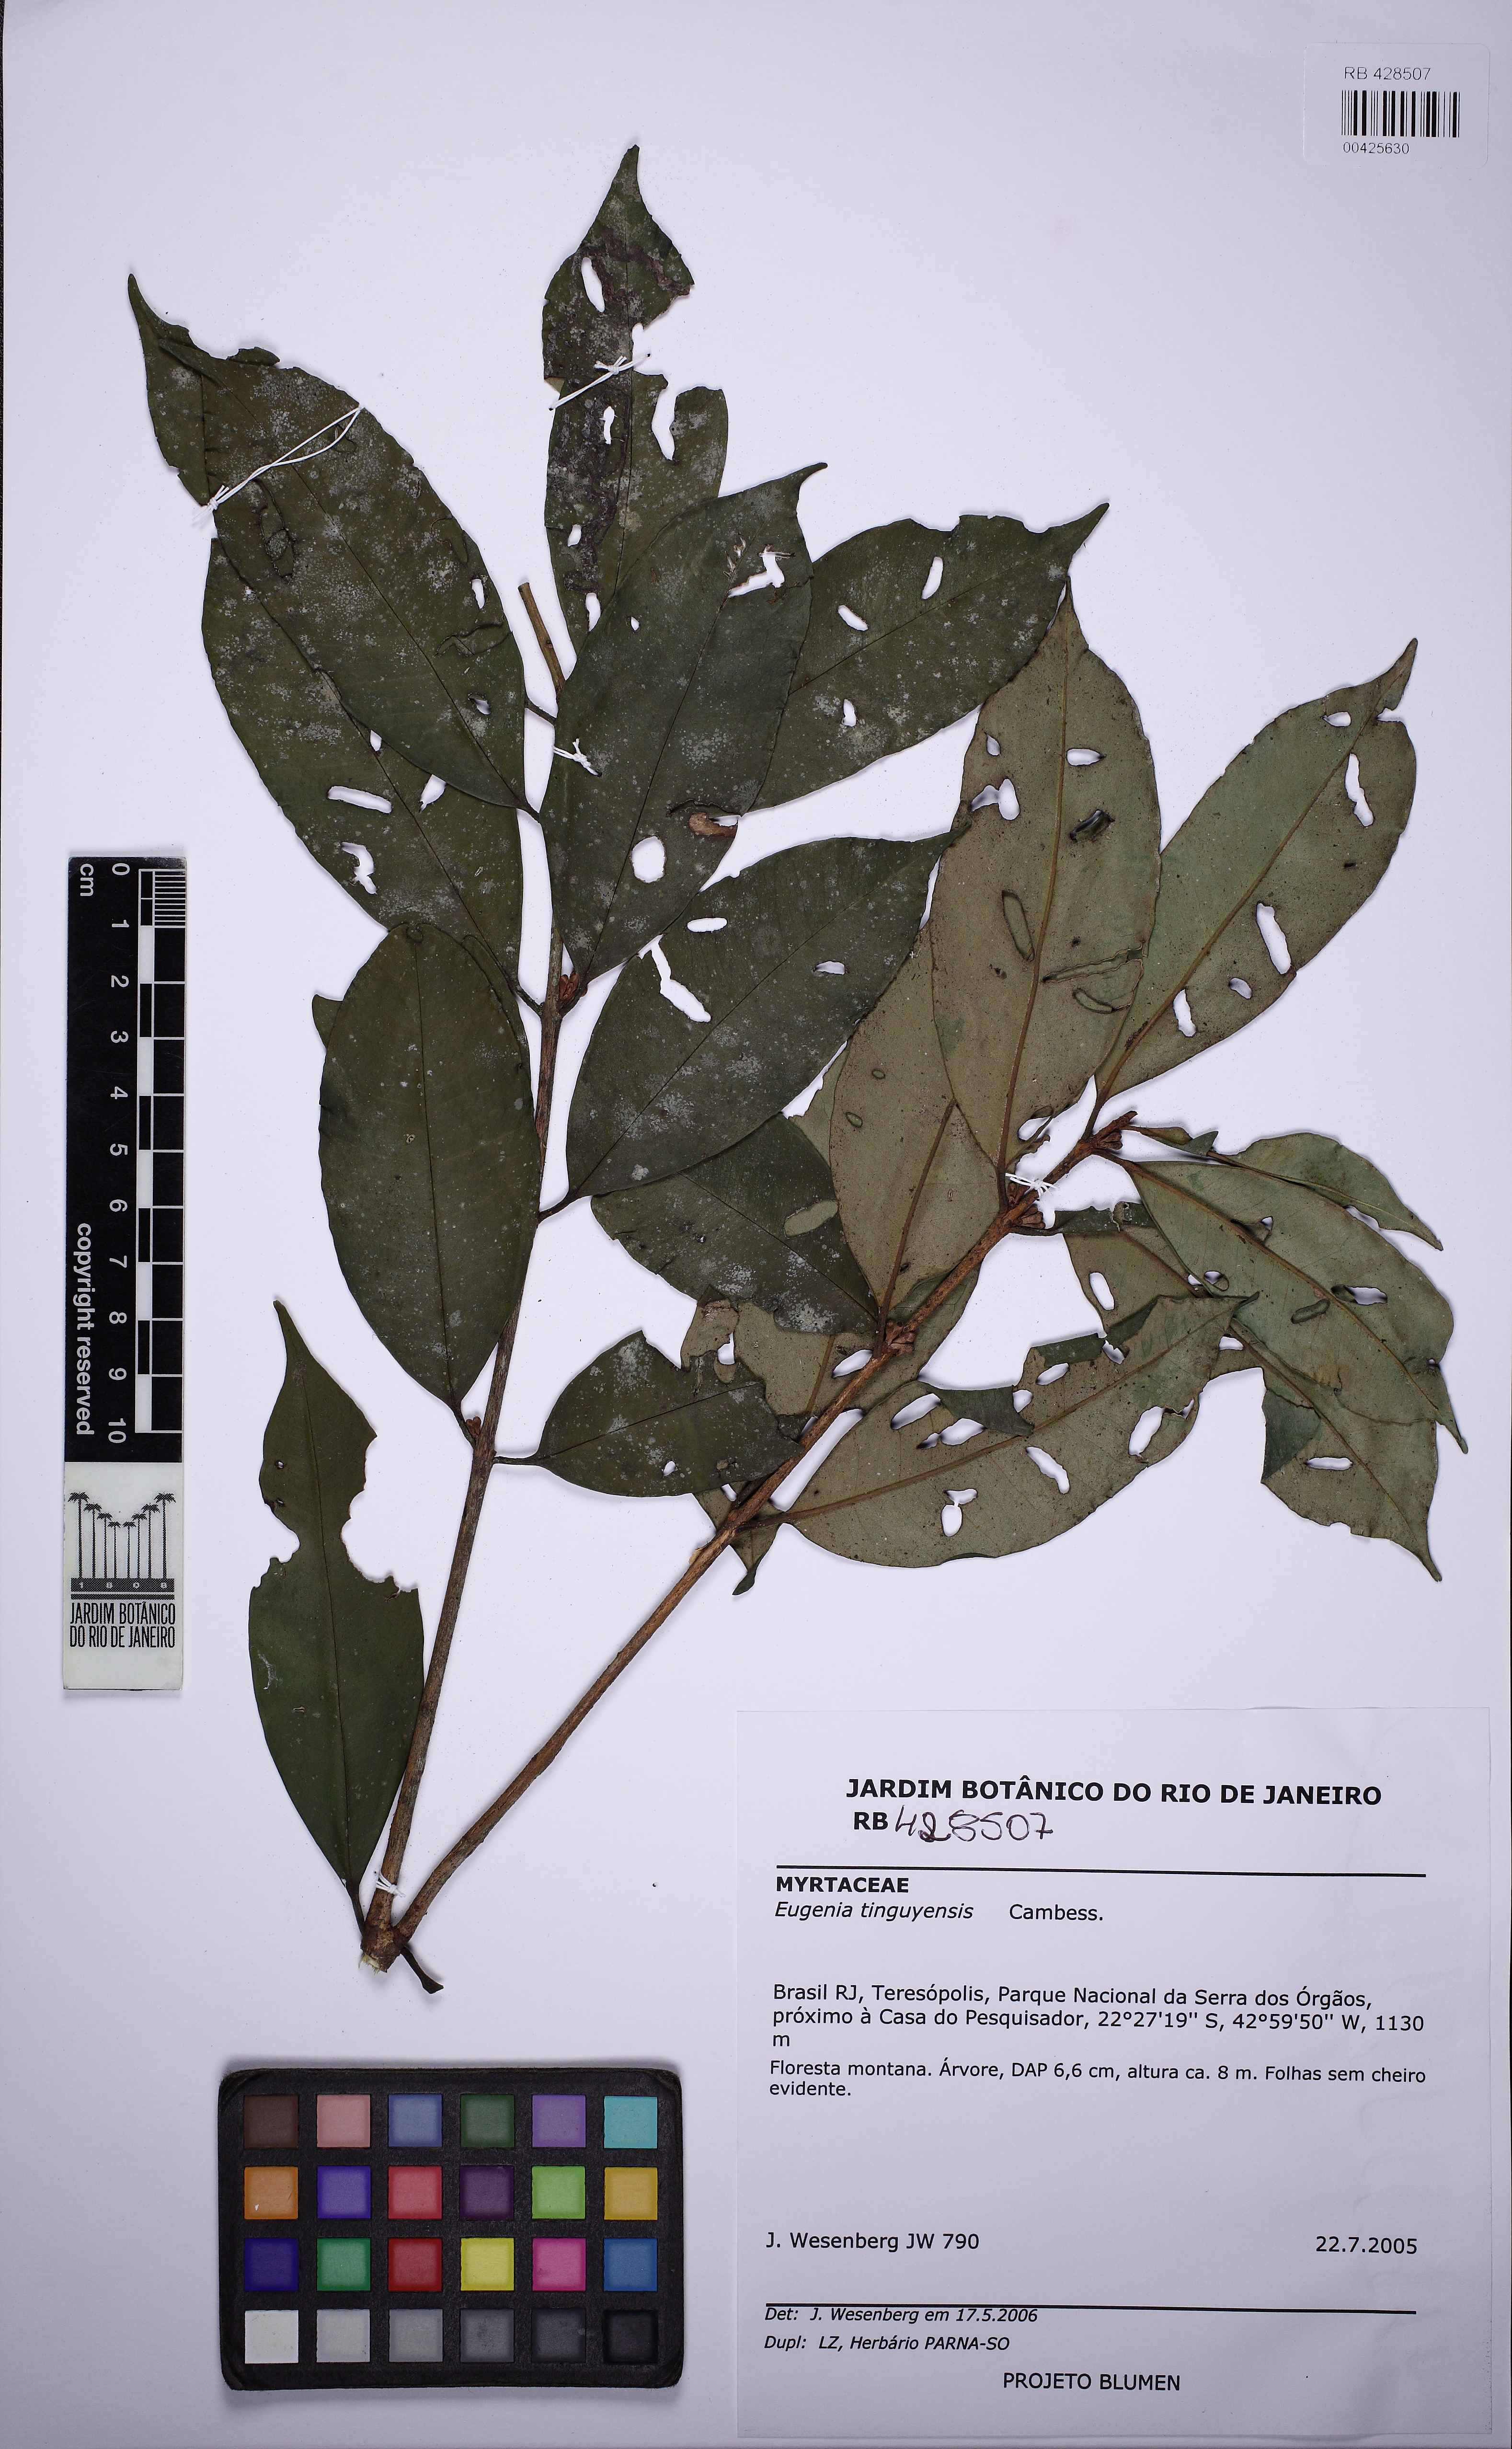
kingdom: Plantae
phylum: Tracheophyta
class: Magnoliopsida
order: Myrtales
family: Myrtaceae
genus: Eugenia
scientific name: Eugenia pisiformis
